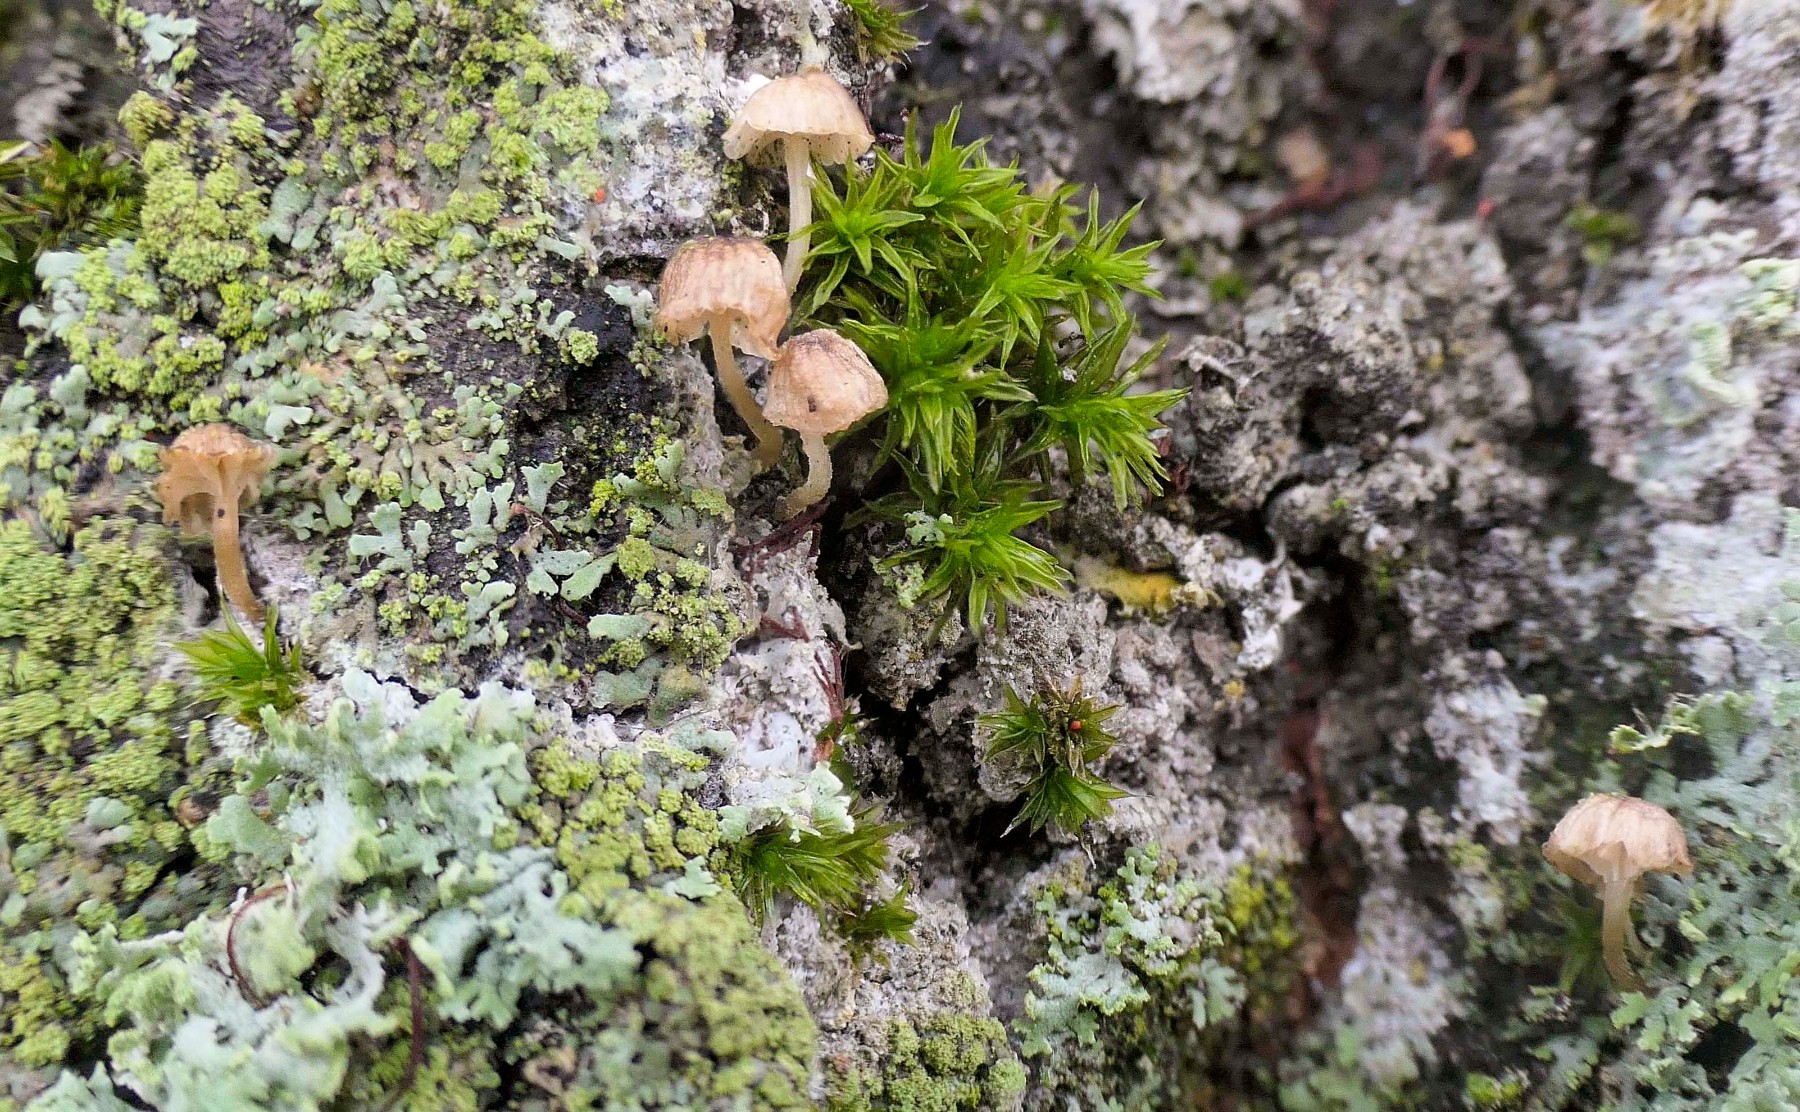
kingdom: Fungi
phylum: Basidiomycota
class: Agaricomycetes
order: Agaricales
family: Mycenaceae
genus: Mycena
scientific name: Mycena
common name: huesvamp
